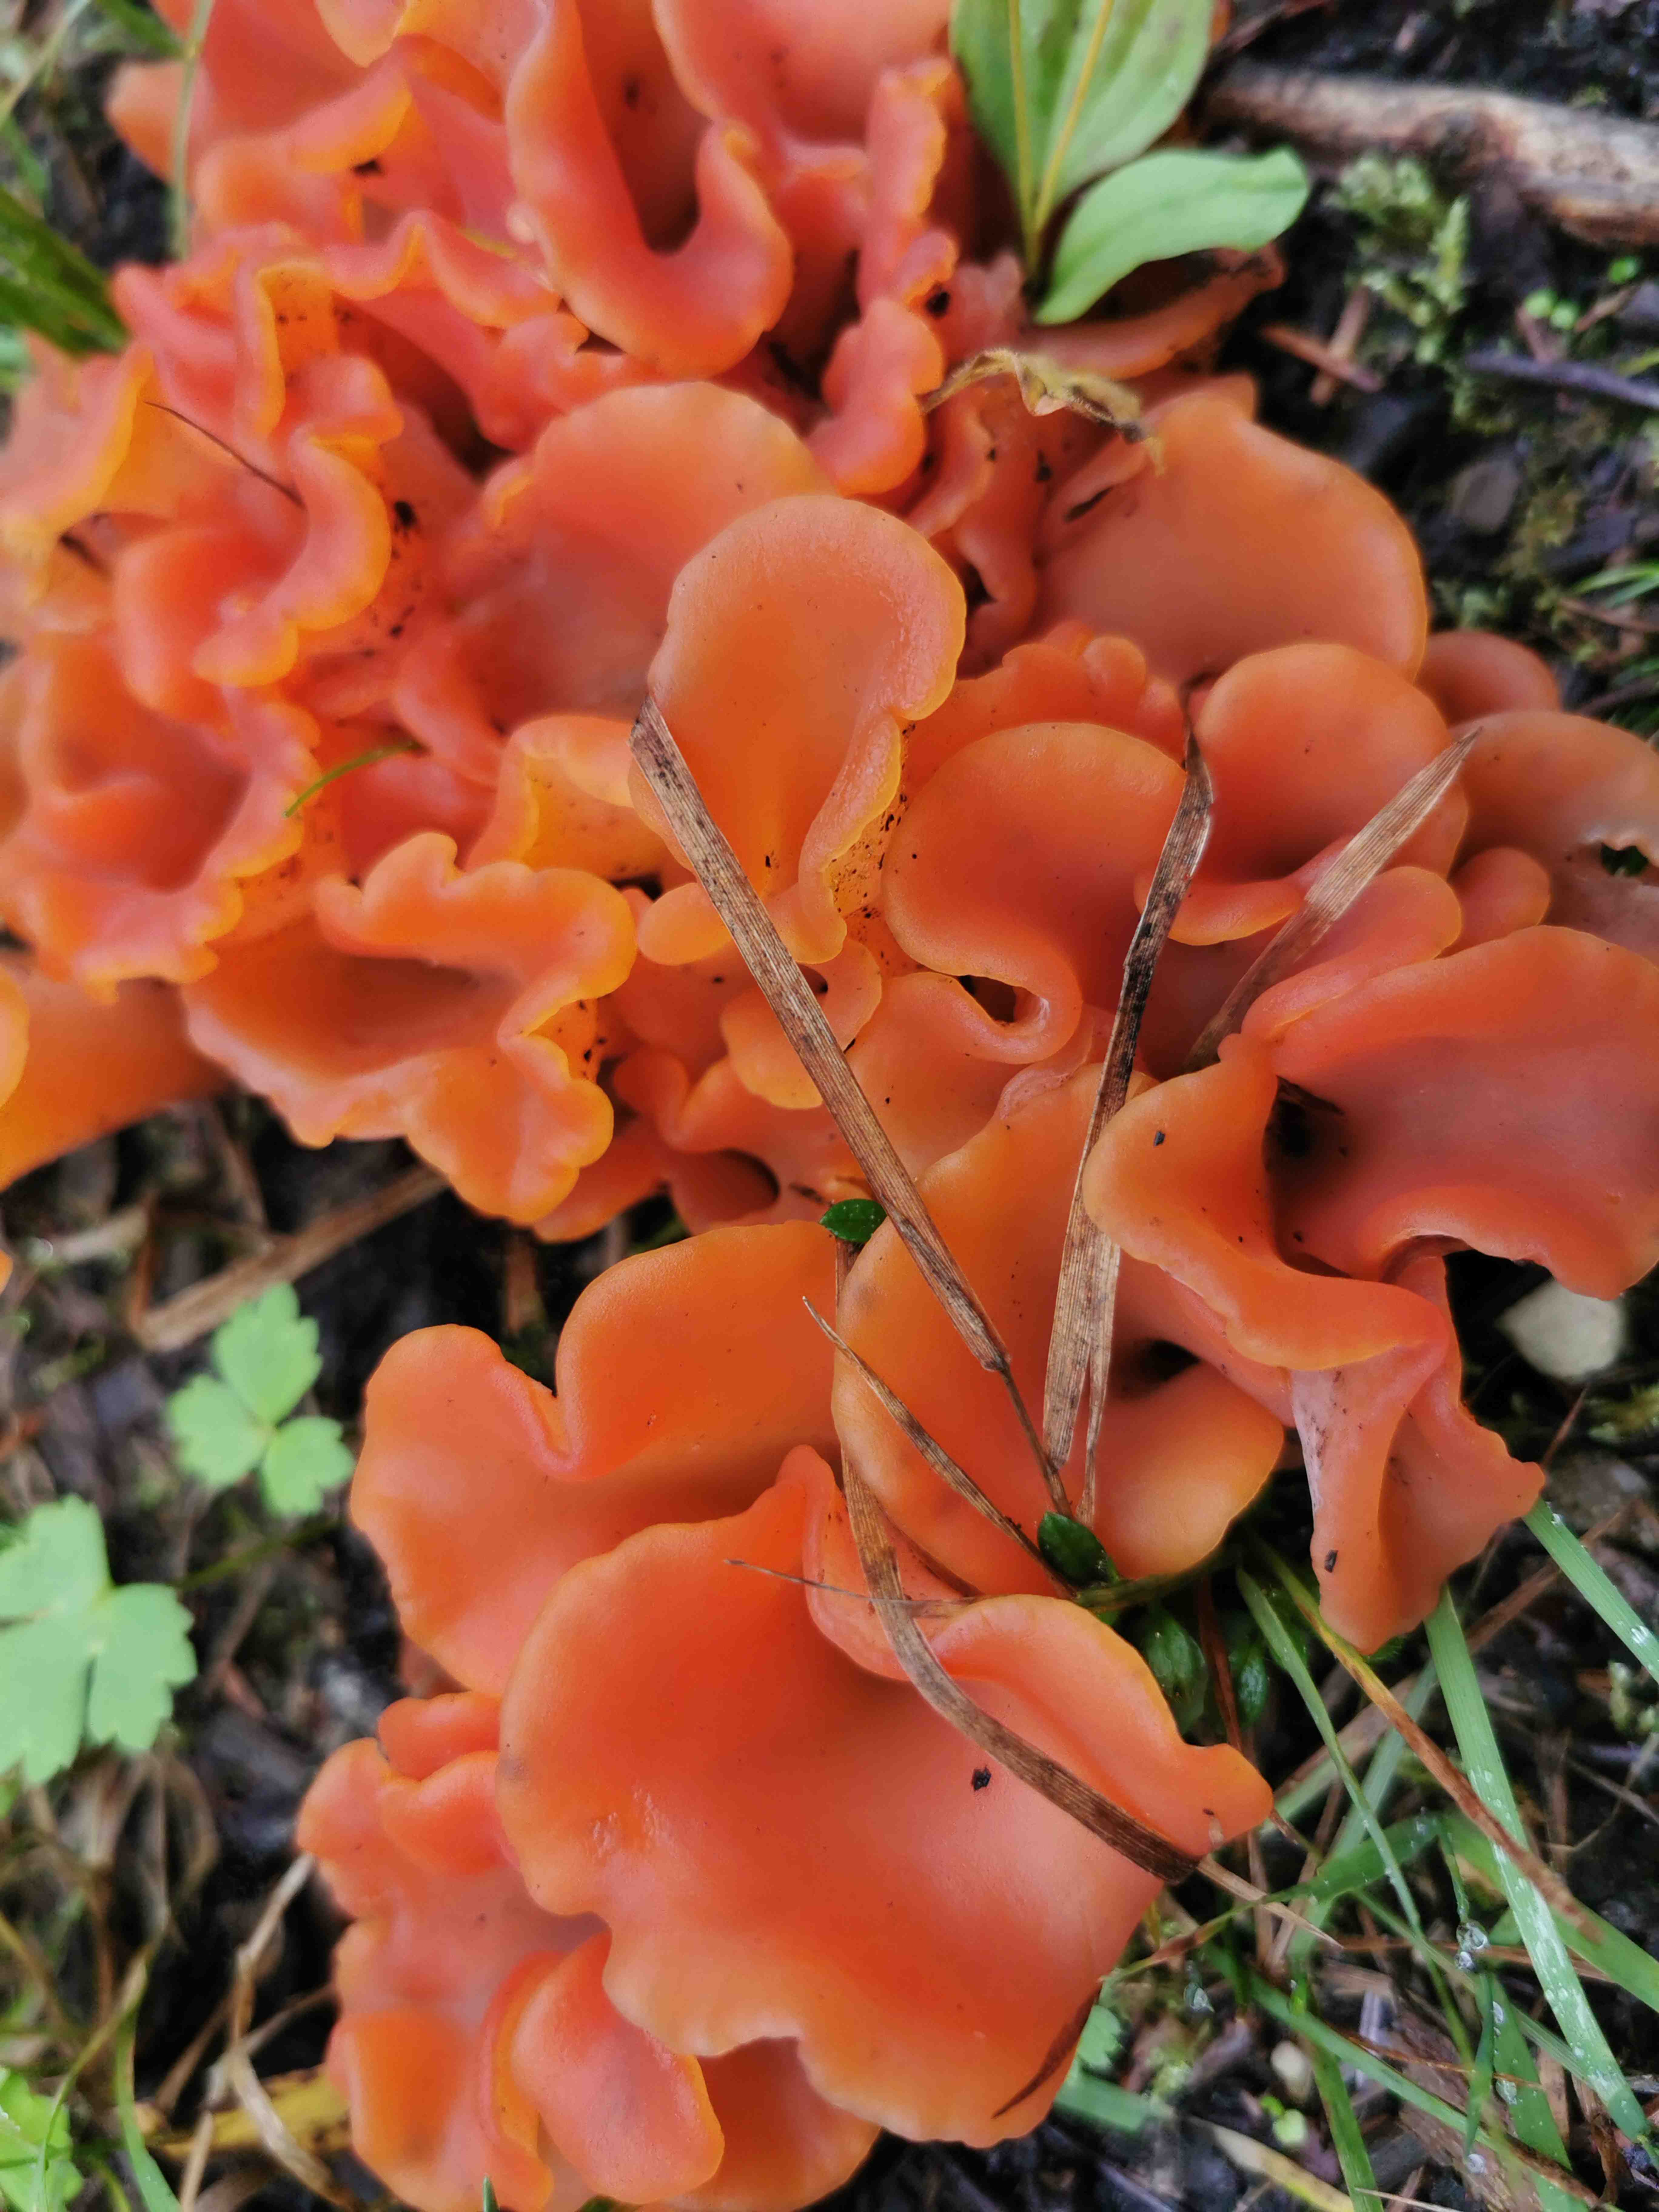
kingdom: Fungi
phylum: Basidiomycota
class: Agaricomycetes
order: Auriculariales
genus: Guepinia
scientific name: Guepinia helvelloides
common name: bævretunge
